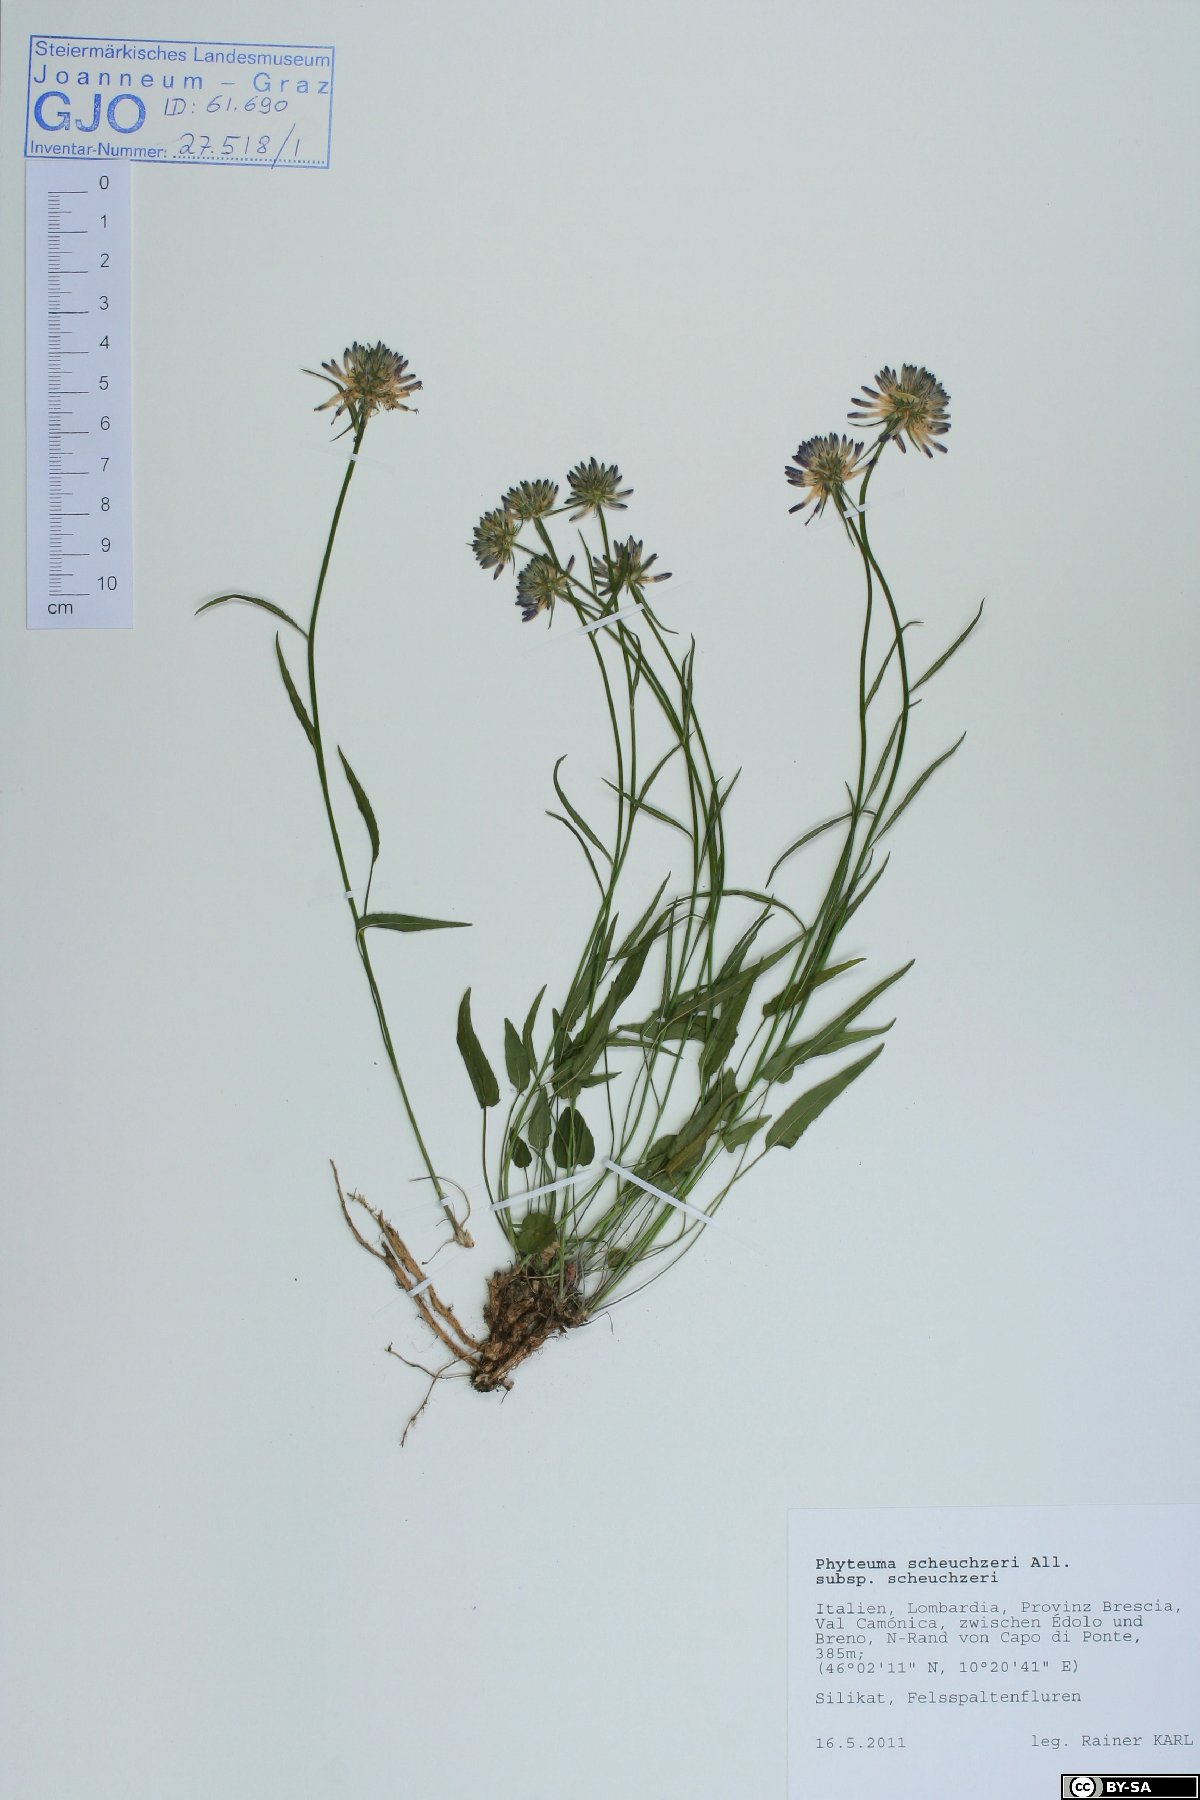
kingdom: Plantae
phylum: Tracheophyta
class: Magnoliopsida
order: Asterales
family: Campanulaceae
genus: Phyteuma
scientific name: Phyteuma scheuchzeri
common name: Oxford rampion
